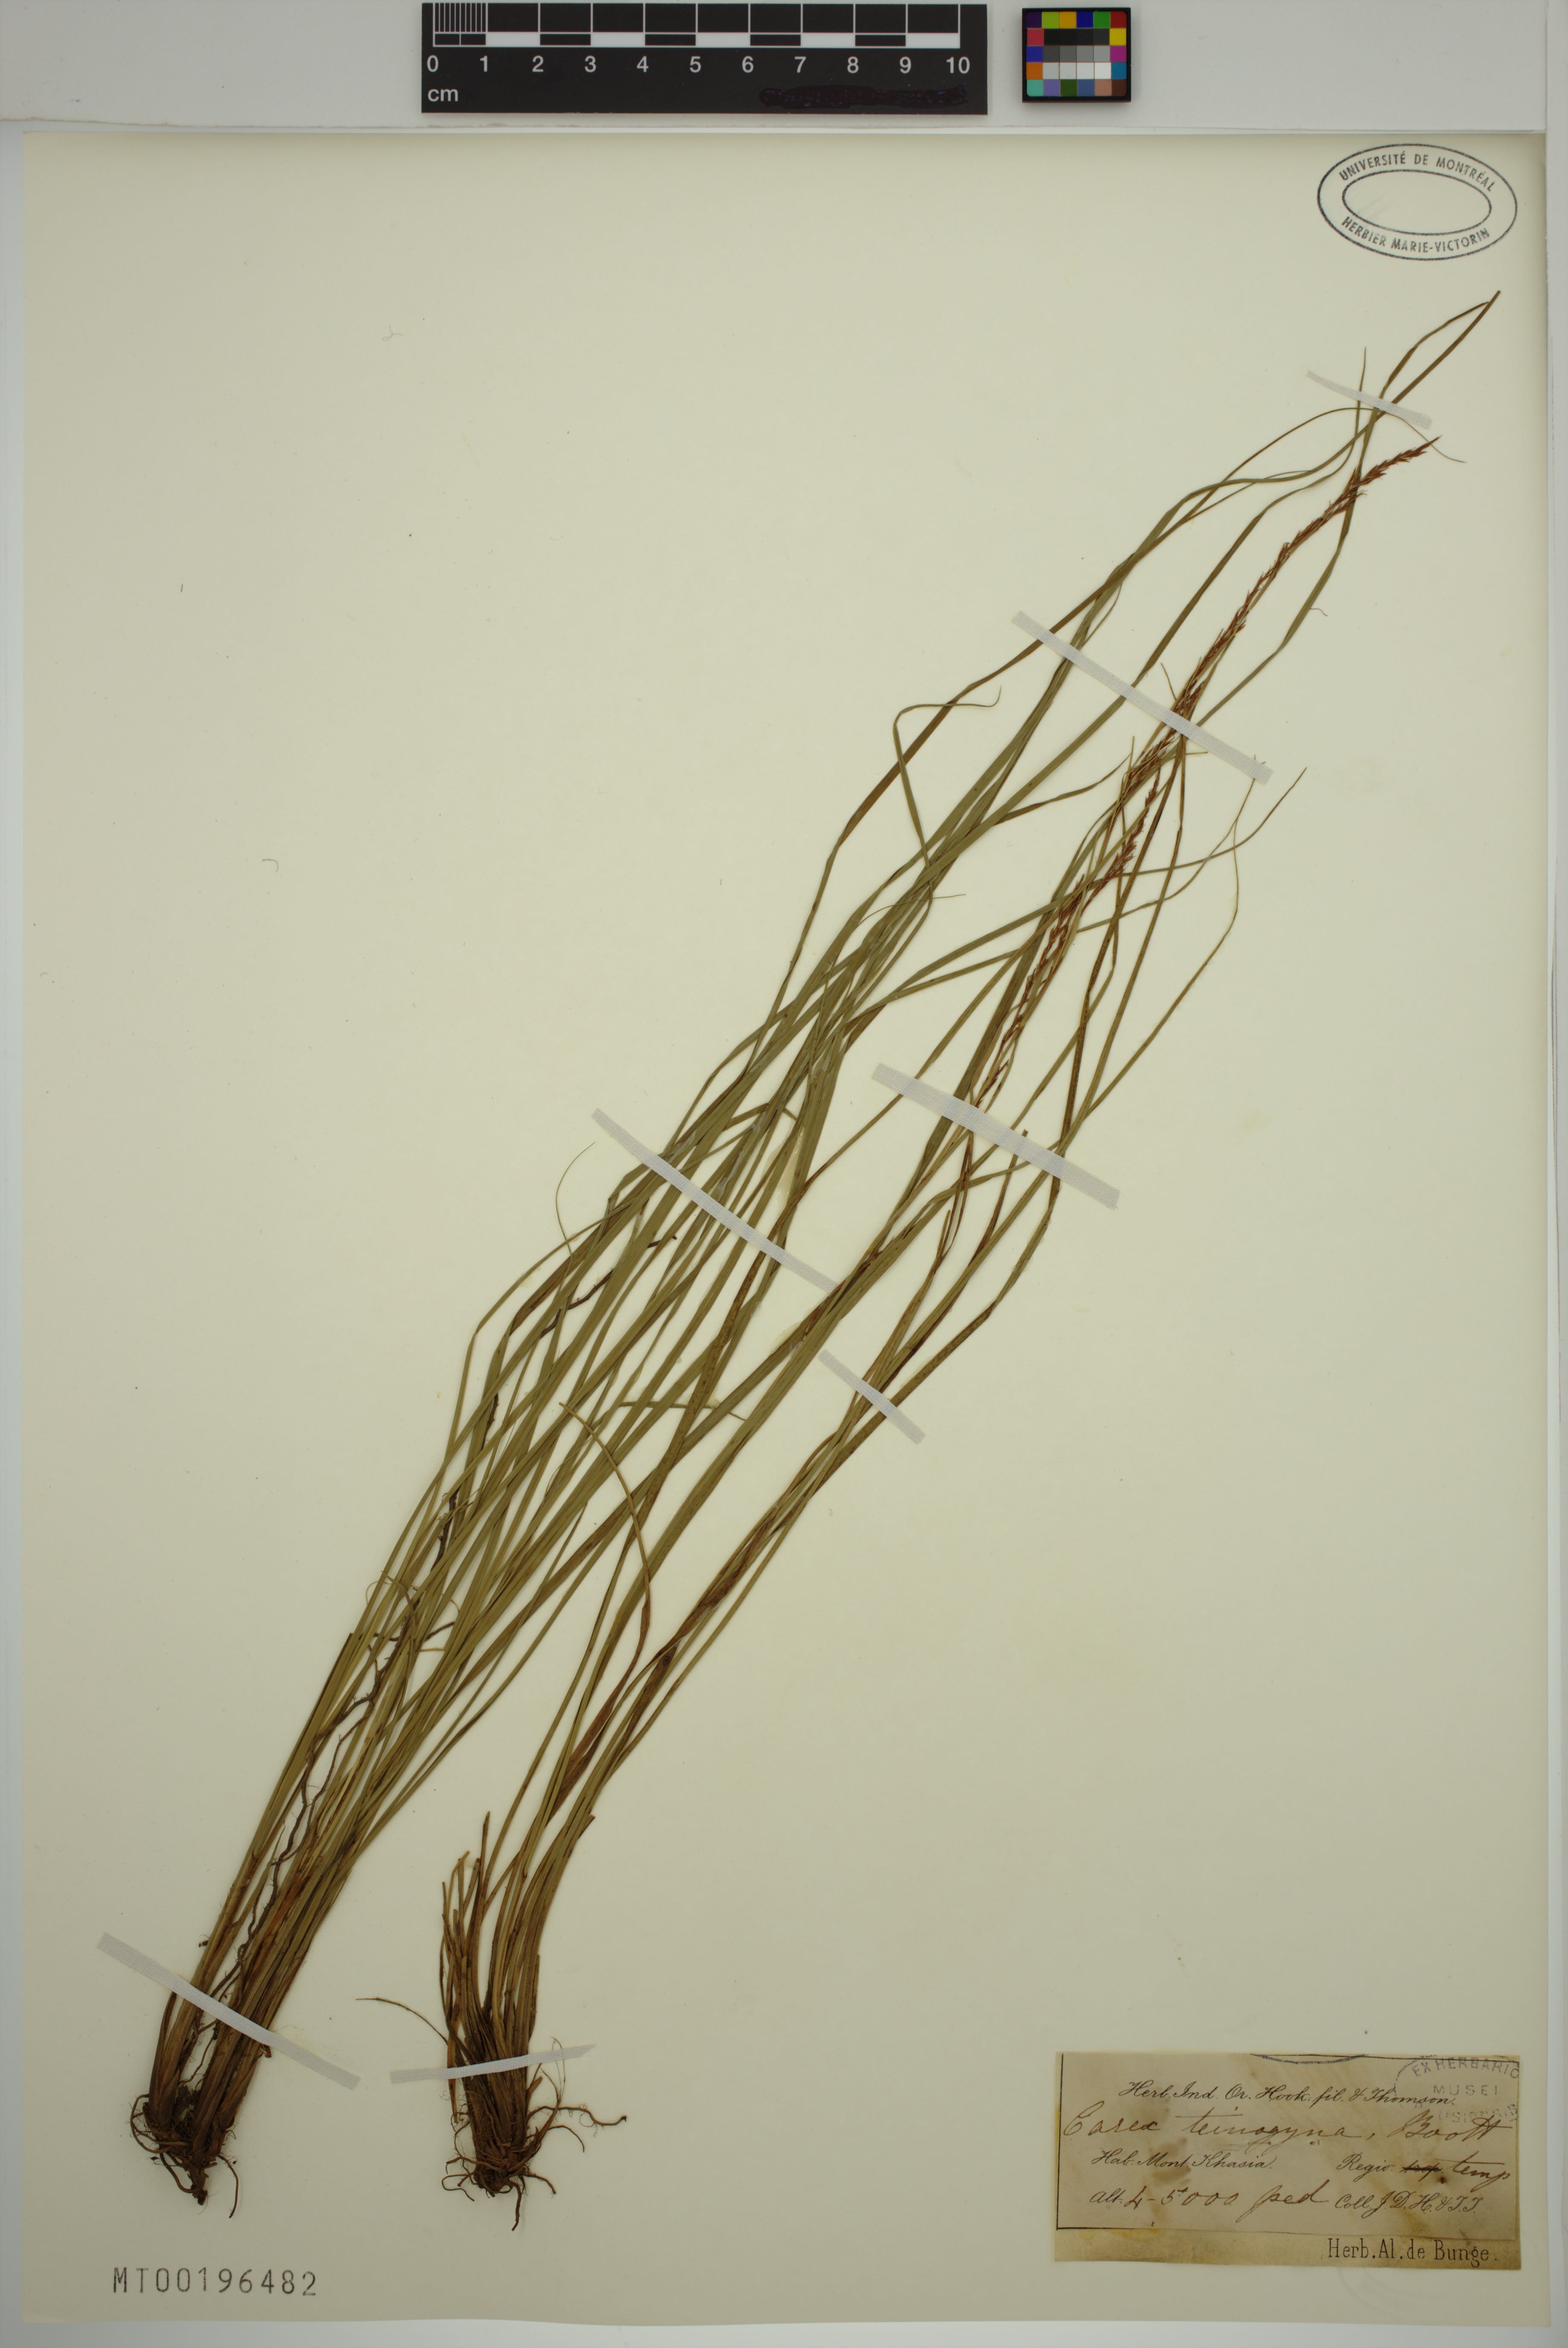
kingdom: Plantae
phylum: Tracheophyta
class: Liliopsida
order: Poales
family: Cyperaceae
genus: Carex
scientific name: Carex teinogyna
